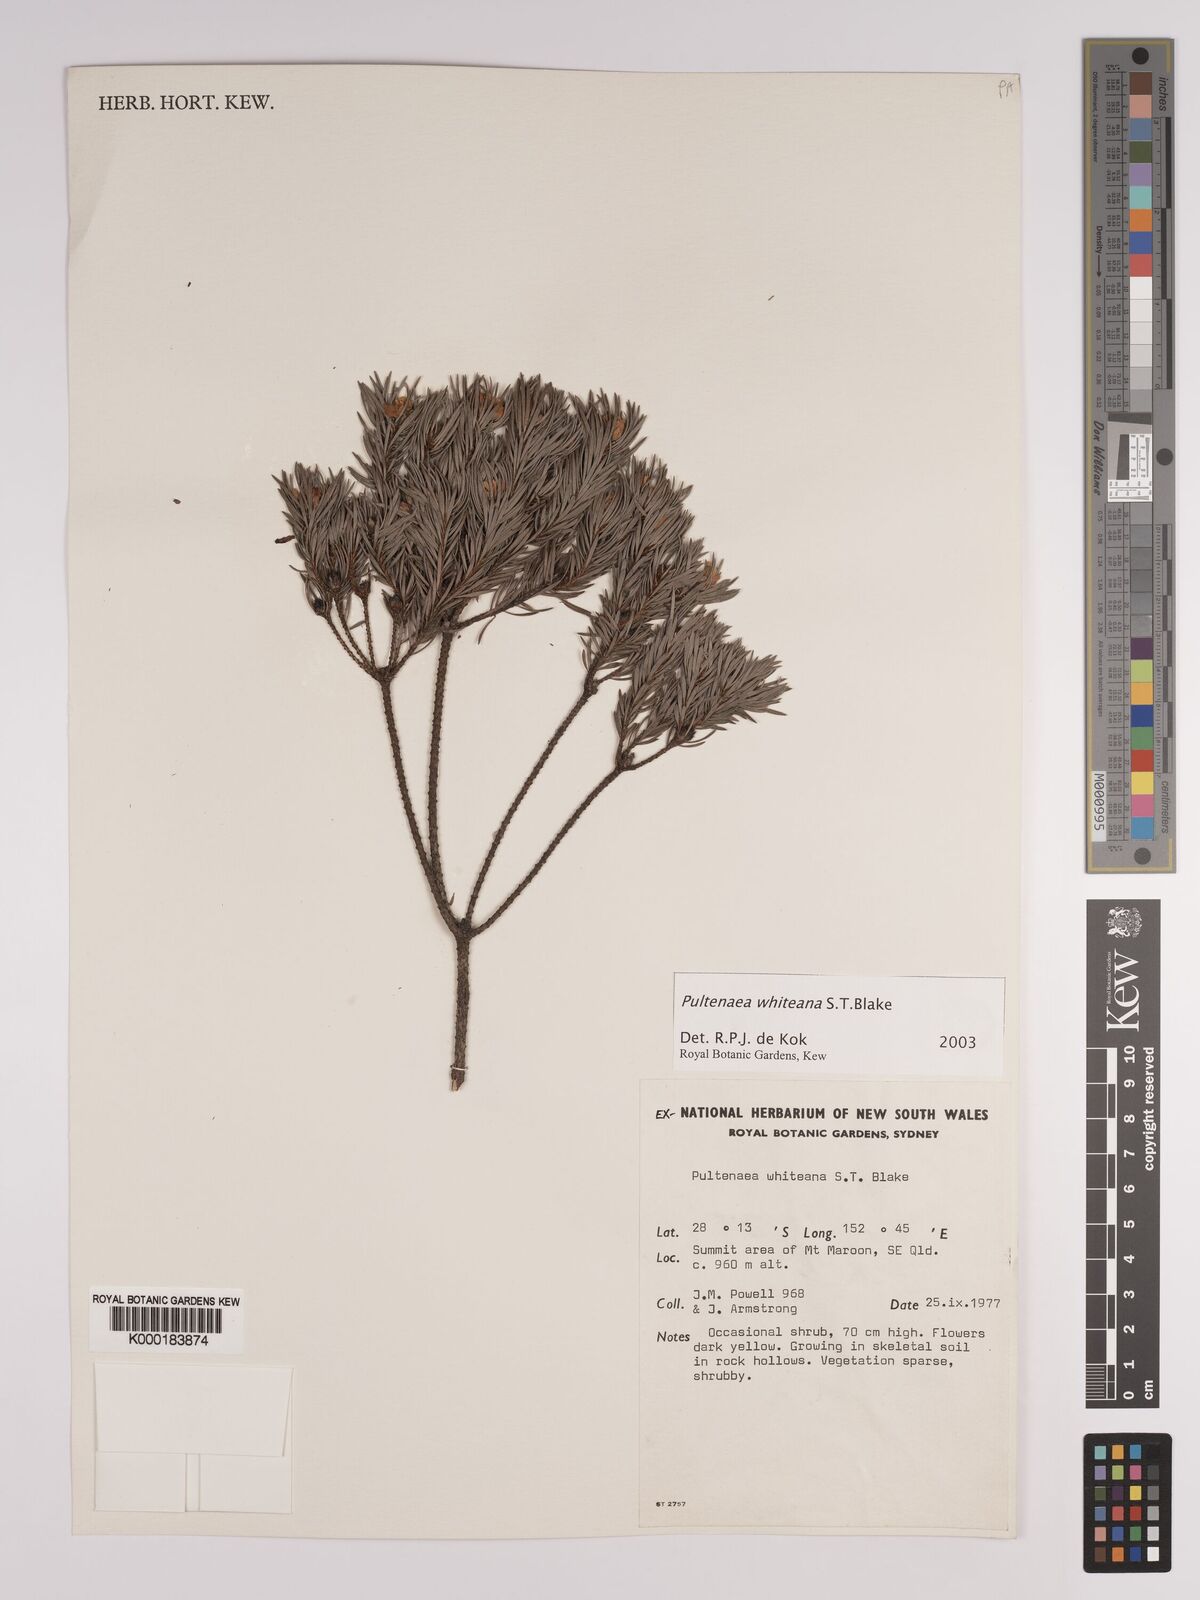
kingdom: Plantae
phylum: Tracheophyta
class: Magnoliopsida
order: Fabales
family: Fabaceae
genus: Pultenaea
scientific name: Pultenaea whiteana
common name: Mount barney bush pea
